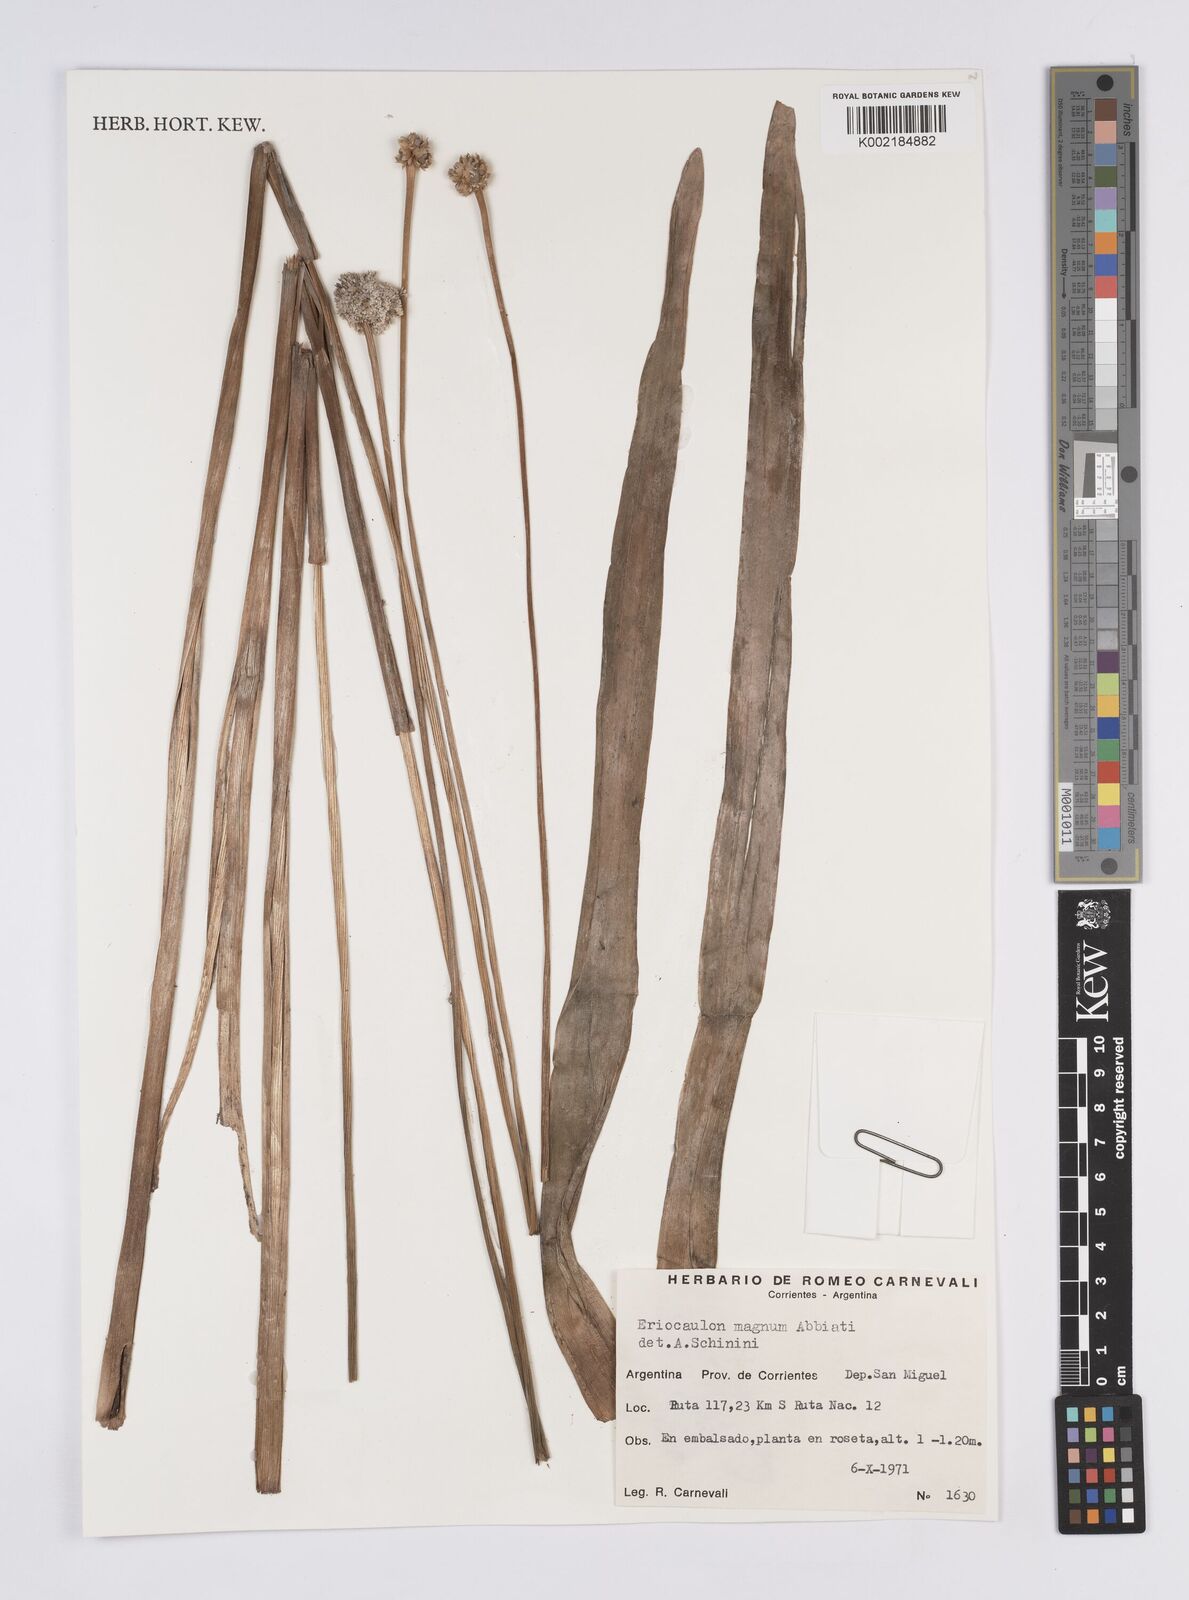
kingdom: Plantae
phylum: Tracheophyta
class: Liliopsida
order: Poales
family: Eriocaulaceae
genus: Eriocaulon
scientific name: Eriocaulon magnum
